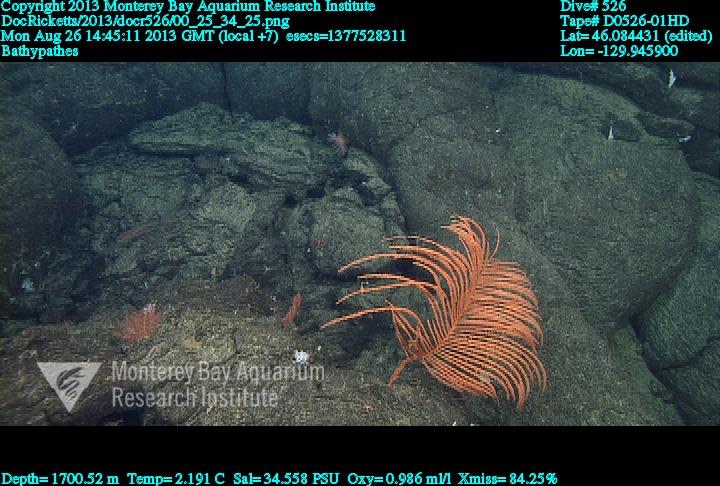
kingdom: Animalia
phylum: Cnidaria
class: Anthozoa
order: Antipatharia
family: Schizopathidae
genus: Bathypathes
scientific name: Bathypathes
